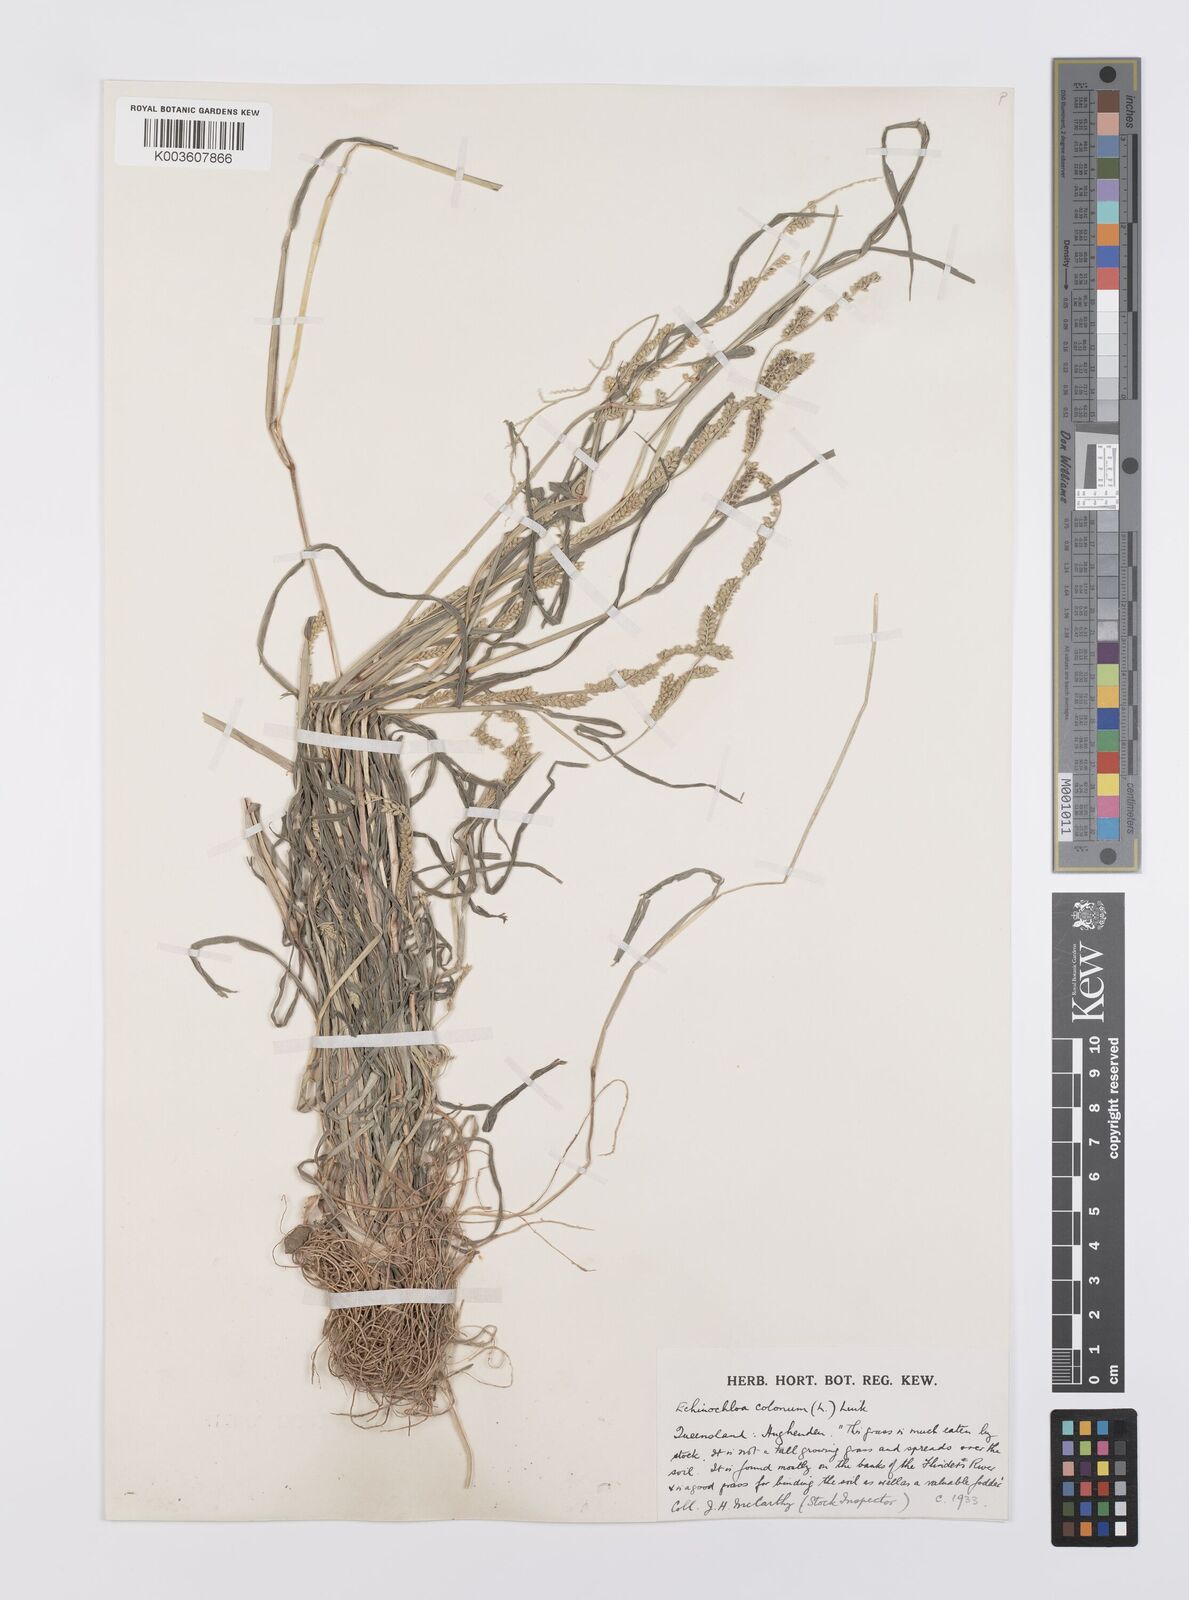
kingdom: Plantae
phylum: Tracheophyta
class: Liliopsida
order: Poales
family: Poaceae
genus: Echinochloa
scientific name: Echinochloa colonum
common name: Jungle rice
